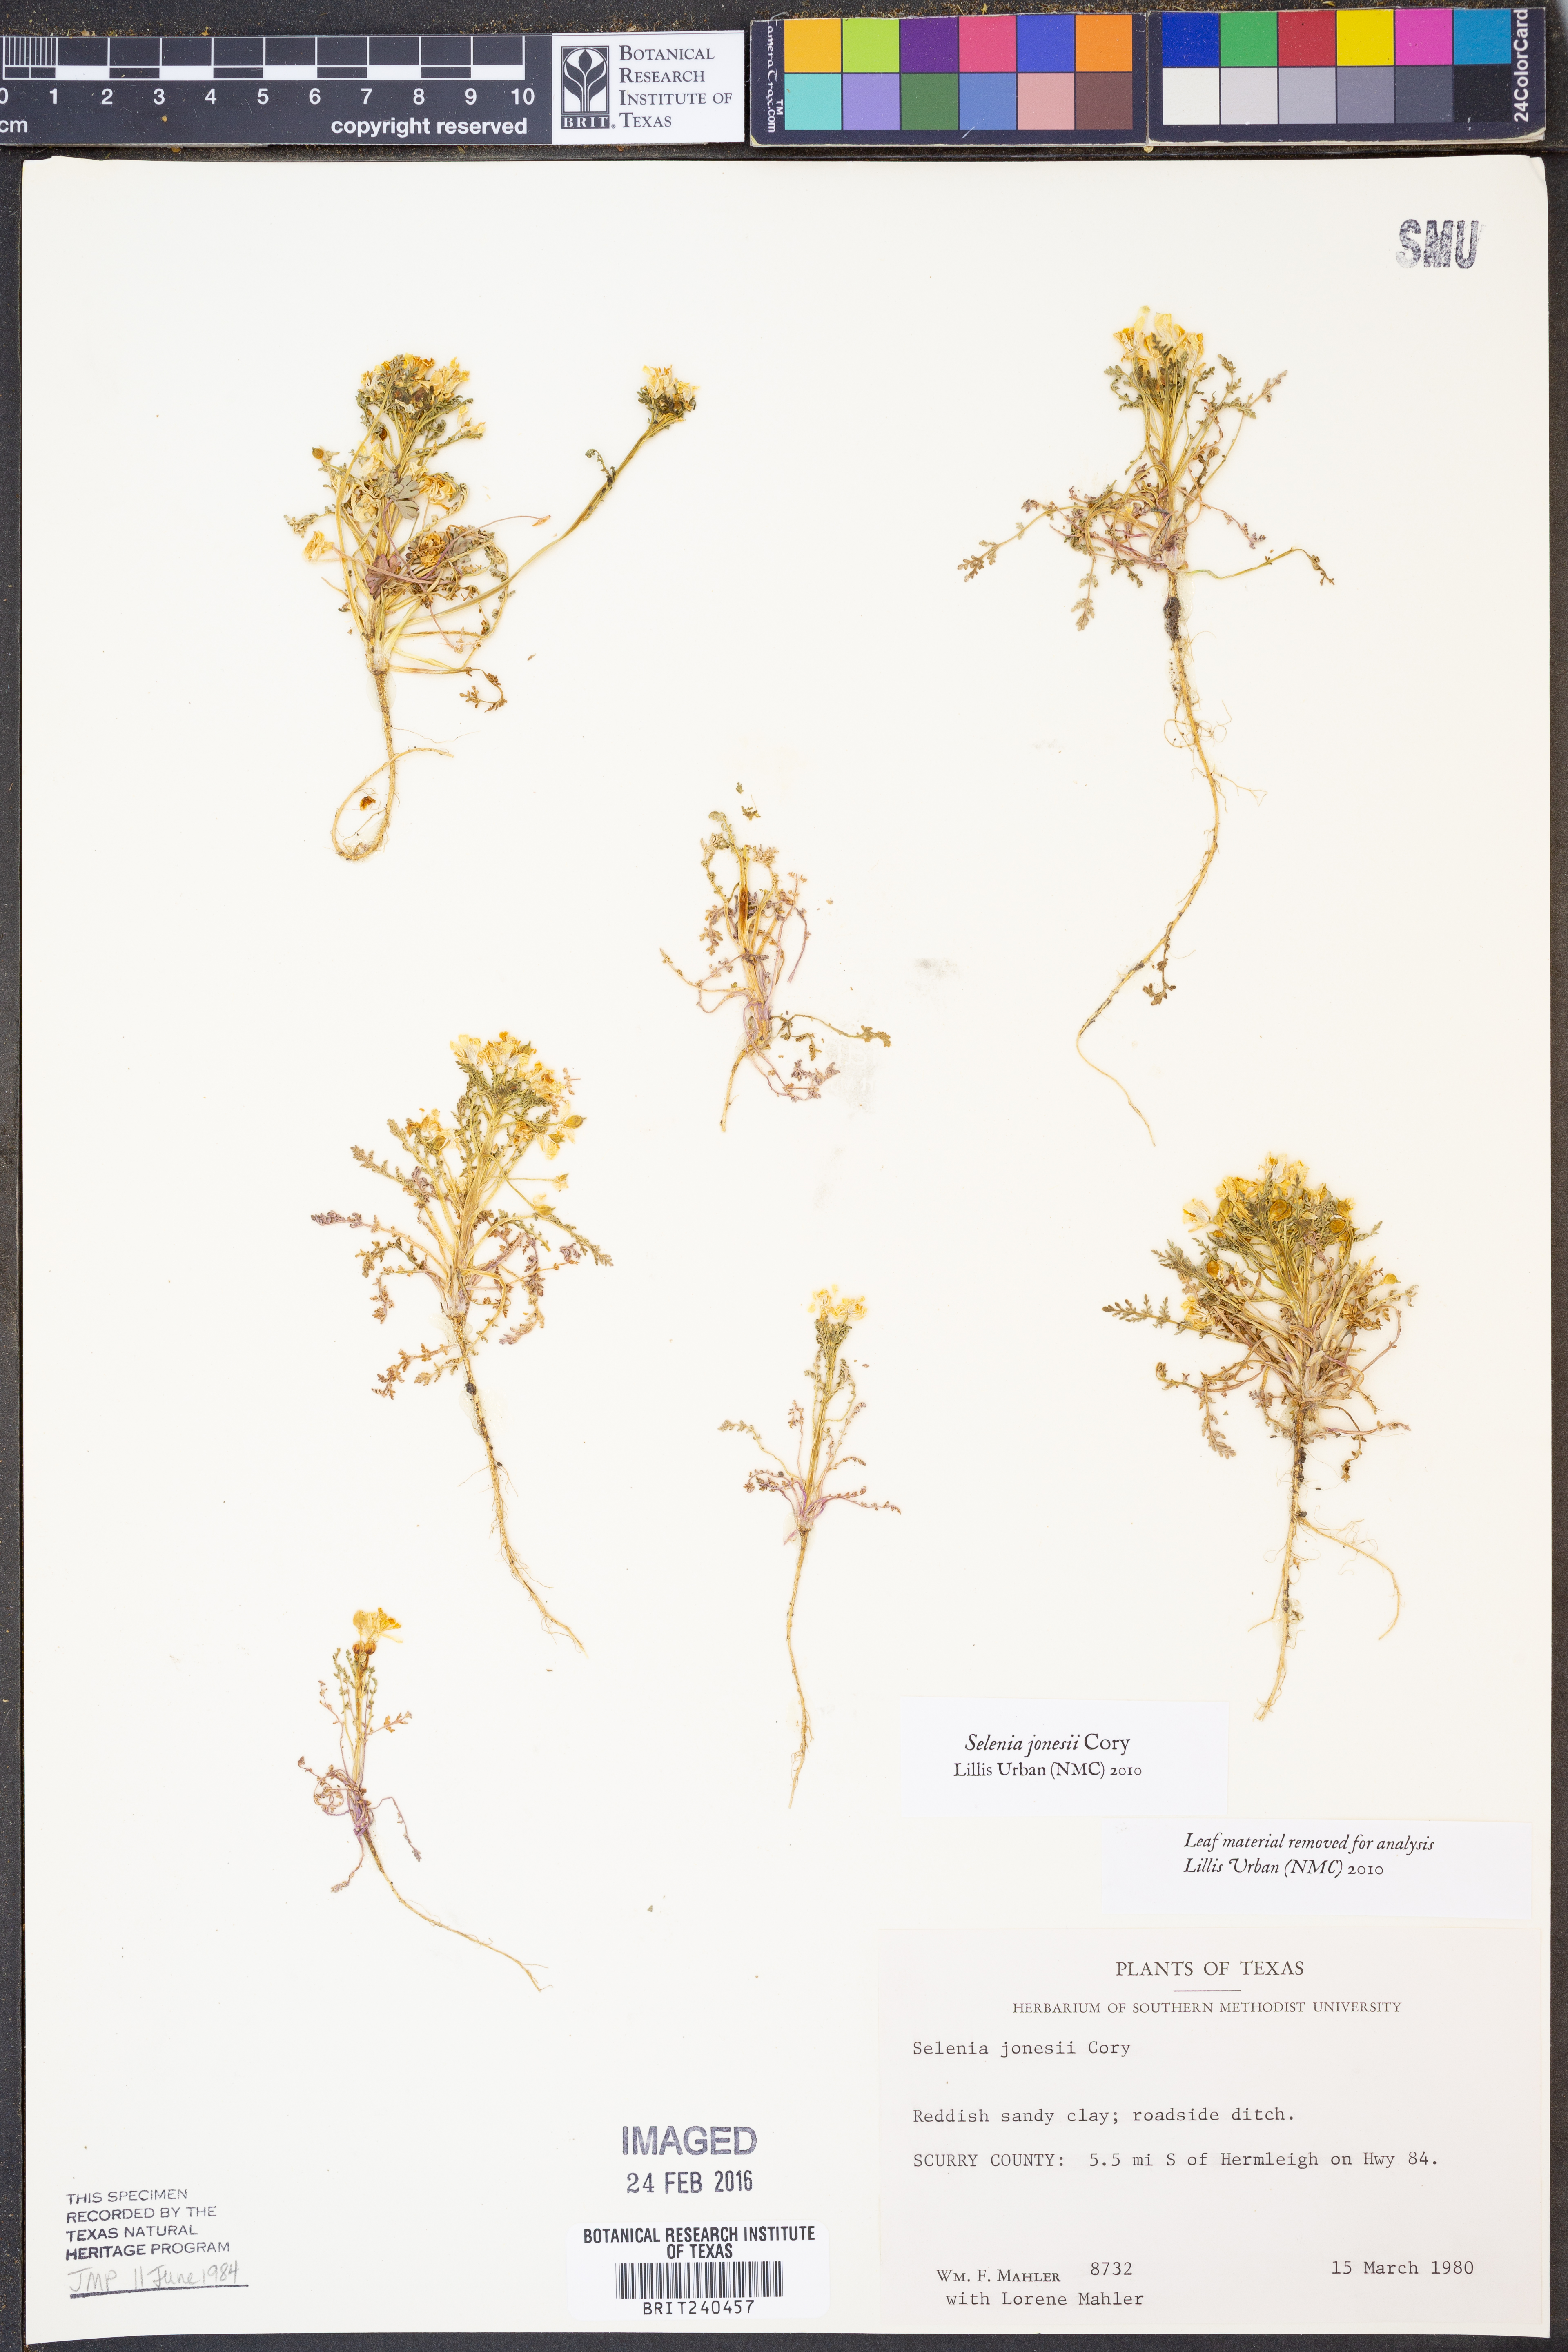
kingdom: Plantae
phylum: Tracheophyta
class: Magnoliopsida
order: Brassicales
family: Brassicaceae
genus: Selenia
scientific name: Selenia jonesii
